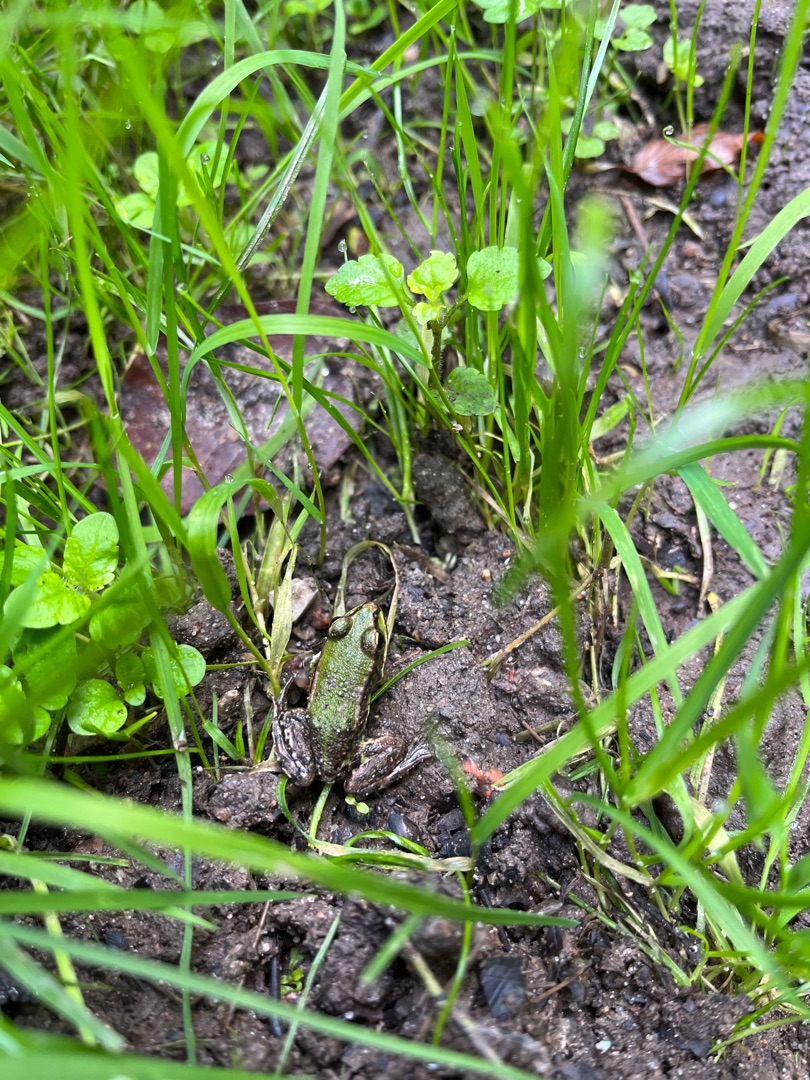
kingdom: Animalia
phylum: Chordata
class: Amphibia
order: Anura
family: Ranidae
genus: Pelophylax
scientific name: Pelophylax lessonae
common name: Grøn frø
